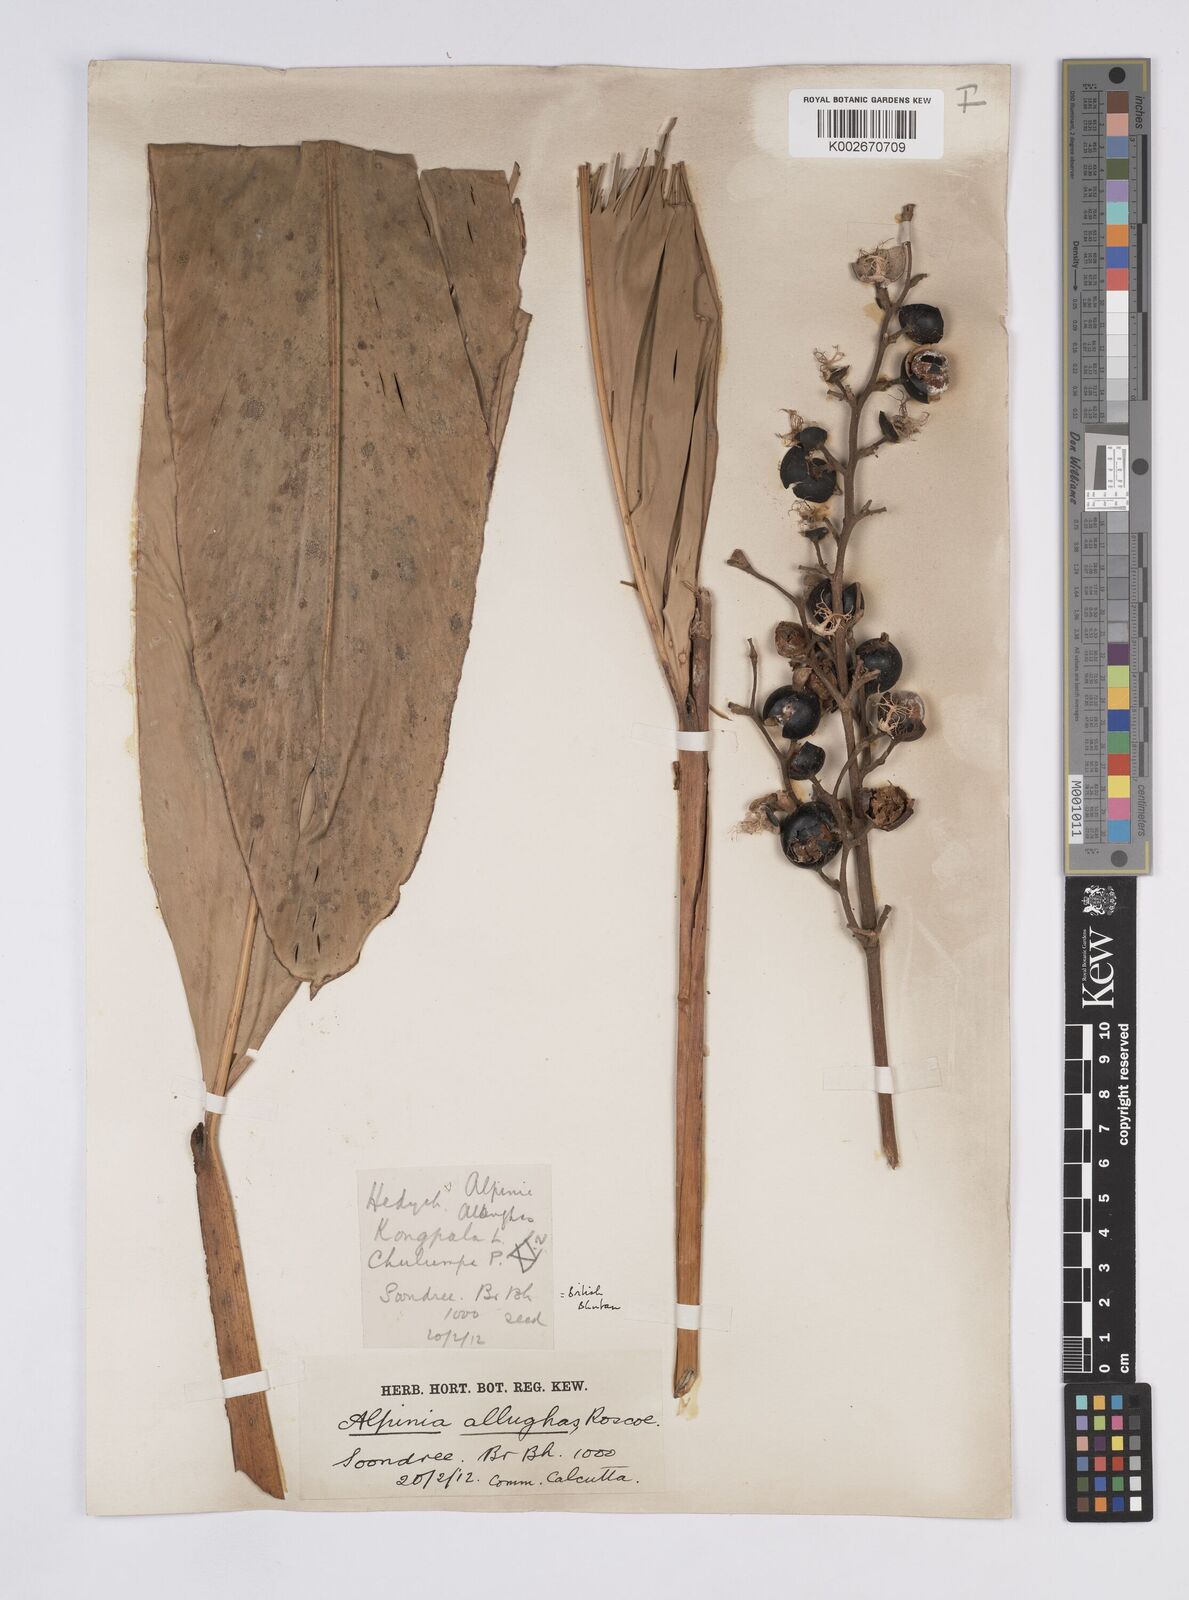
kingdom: Plantae
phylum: Tracheophyta
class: Liliopsida
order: Zingiberales
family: Zingiberaceae
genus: Alpinia
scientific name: Alpinia nigra
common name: Black fruited galanga
